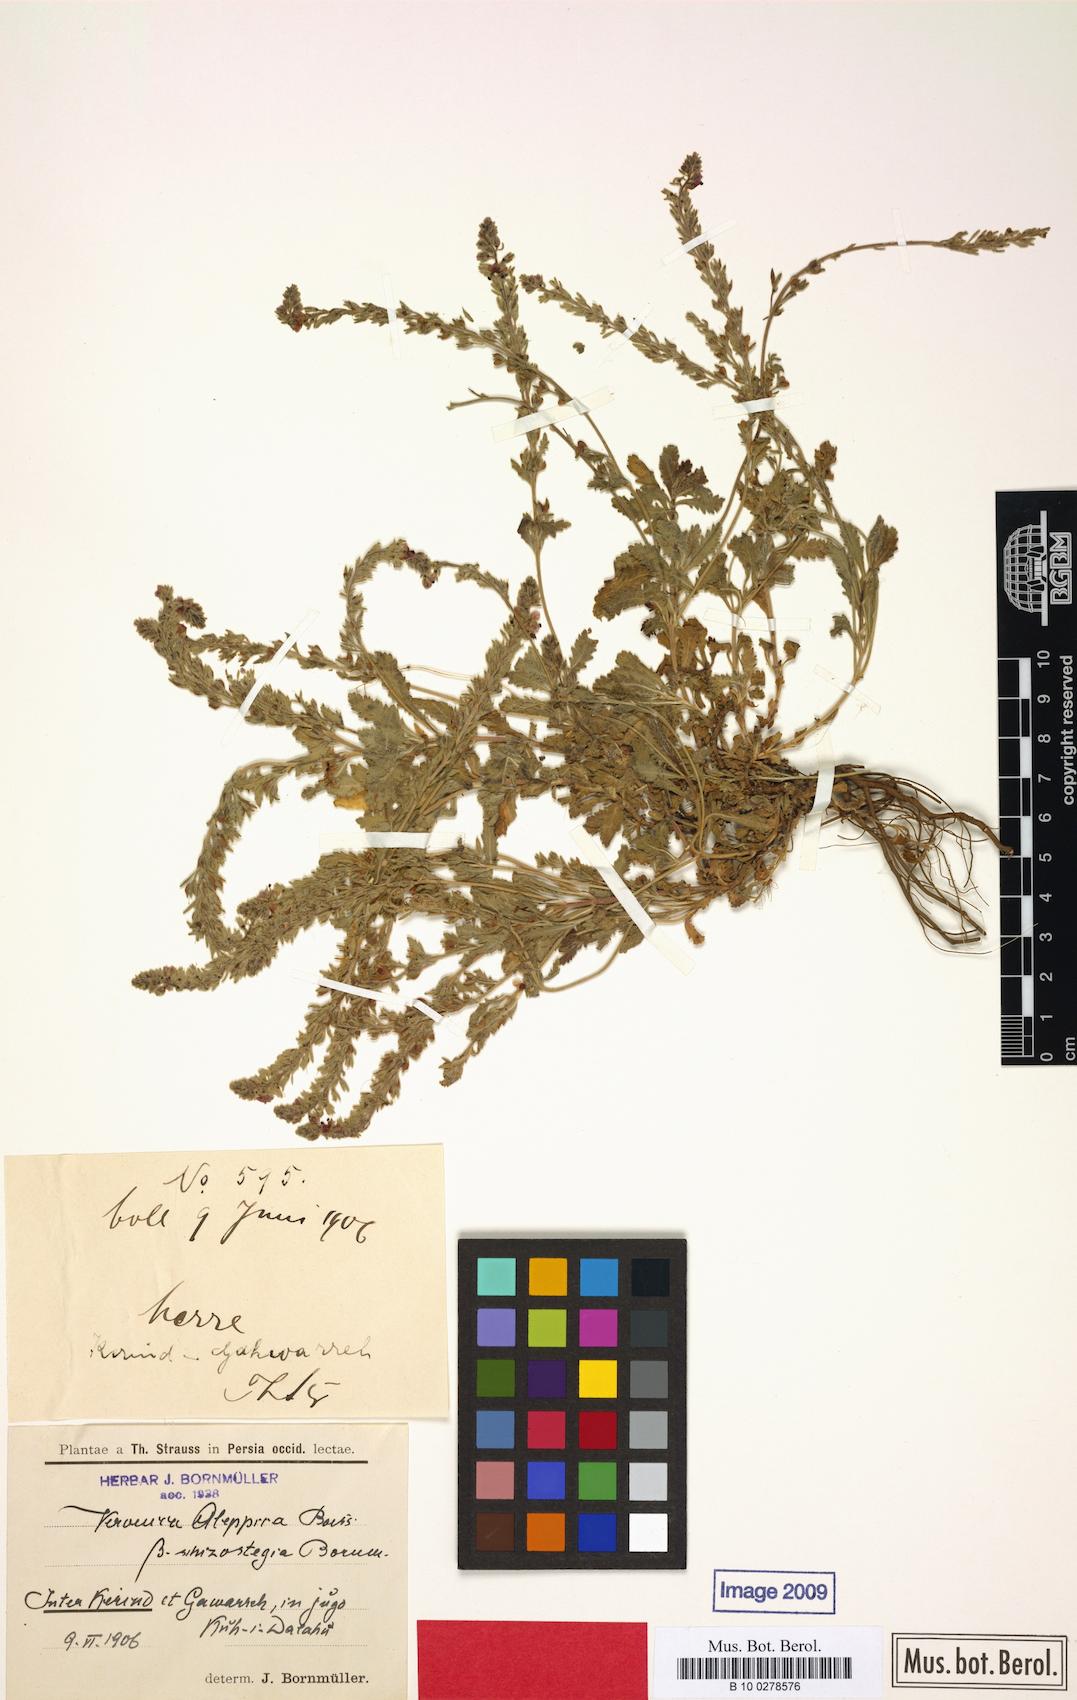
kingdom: Plantae
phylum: Tracheophyta
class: Magnoliopsida
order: Lamiales
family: Plantaginaceae
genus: Veronica
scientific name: Veronica macrostachya
